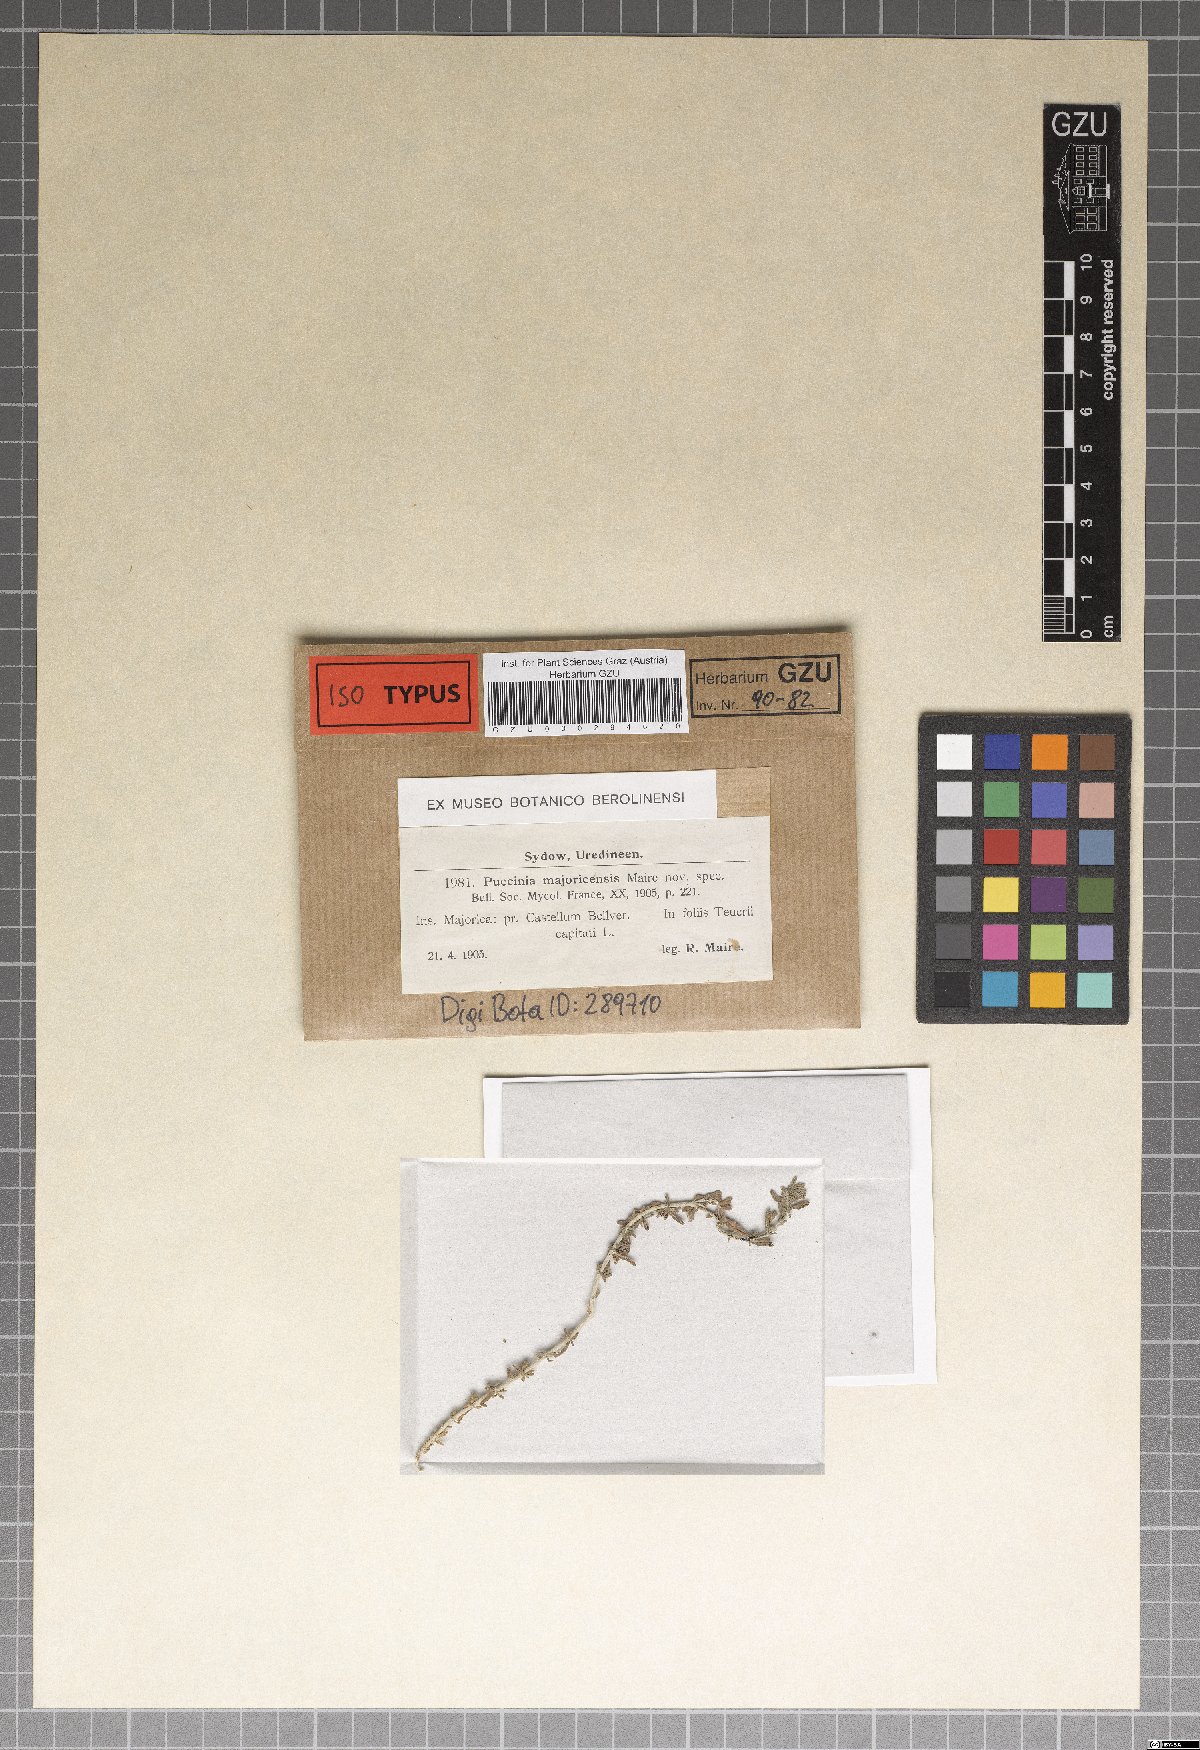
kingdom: Fungi
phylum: Basidiomycota
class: Pucciniomycetes
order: Pucciniales
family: Pucciniaceae
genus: Puccinia
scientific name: Puccinia majoricensis
